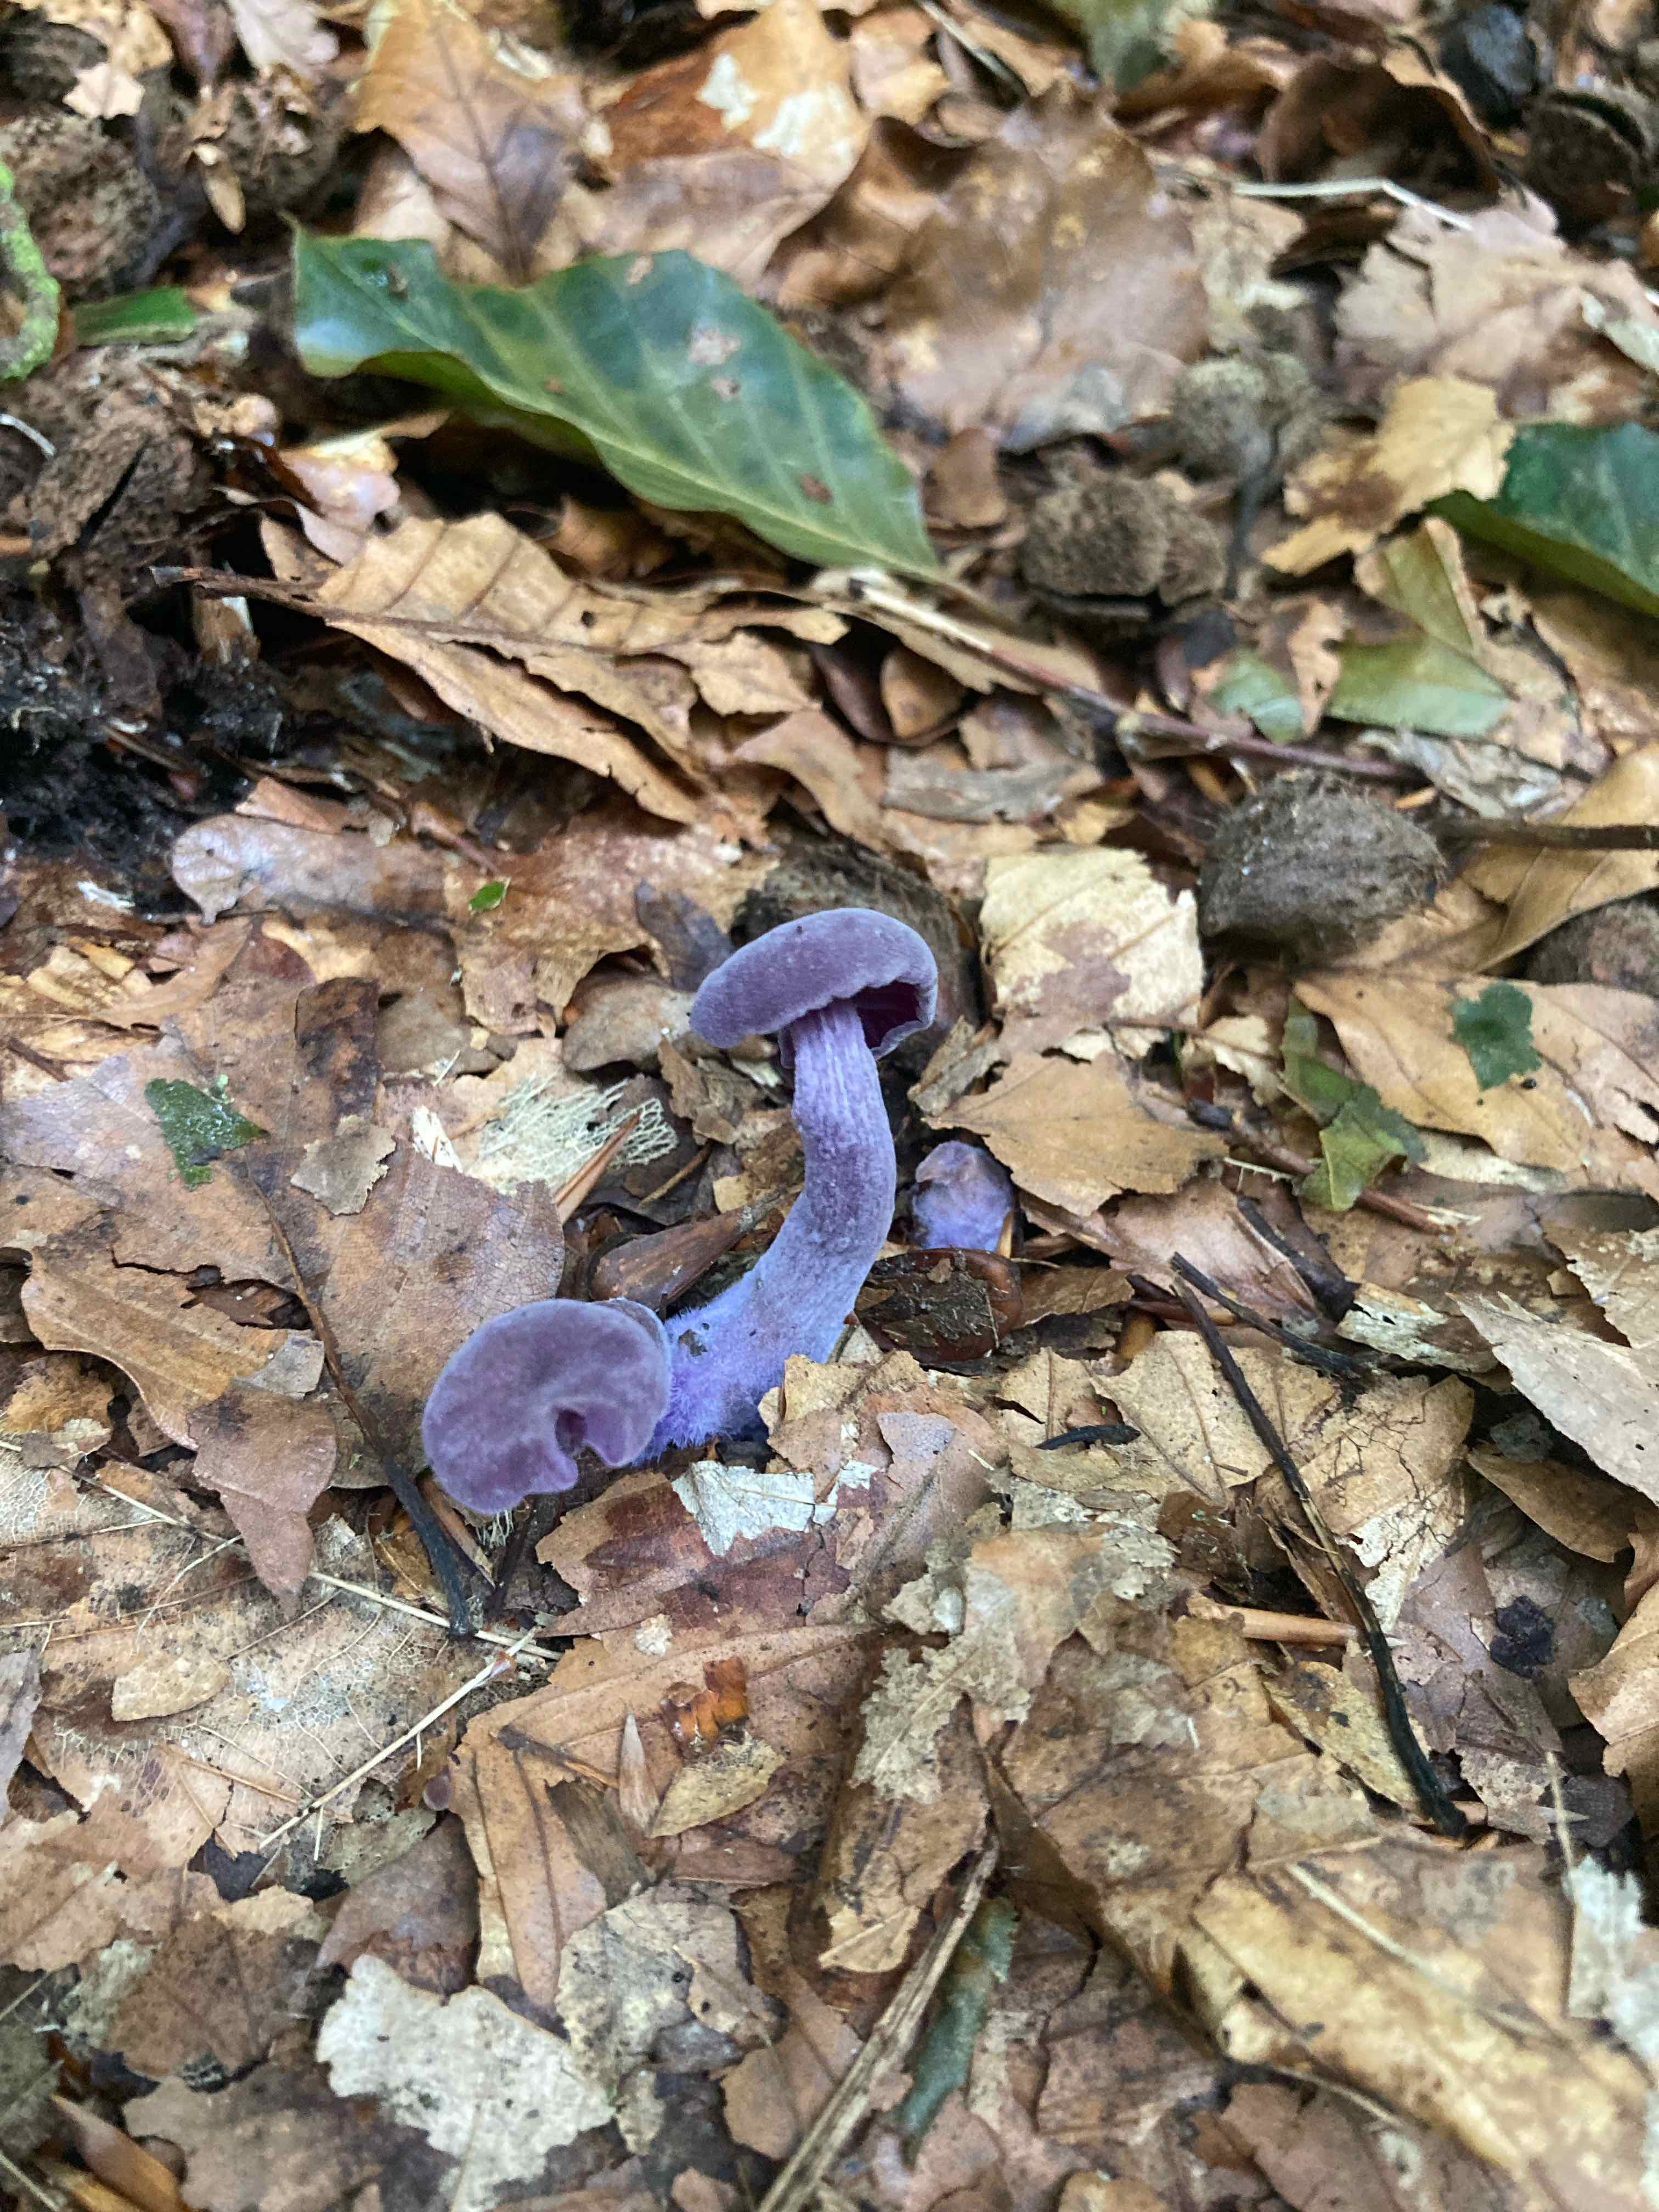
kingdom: Fungi
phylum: Basidiomycota
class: Agaricomycetes
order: Agaricales
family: Hydnangiaceae
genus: Laccaria
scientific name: Laccaria amethystina
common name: violet ametysthat
